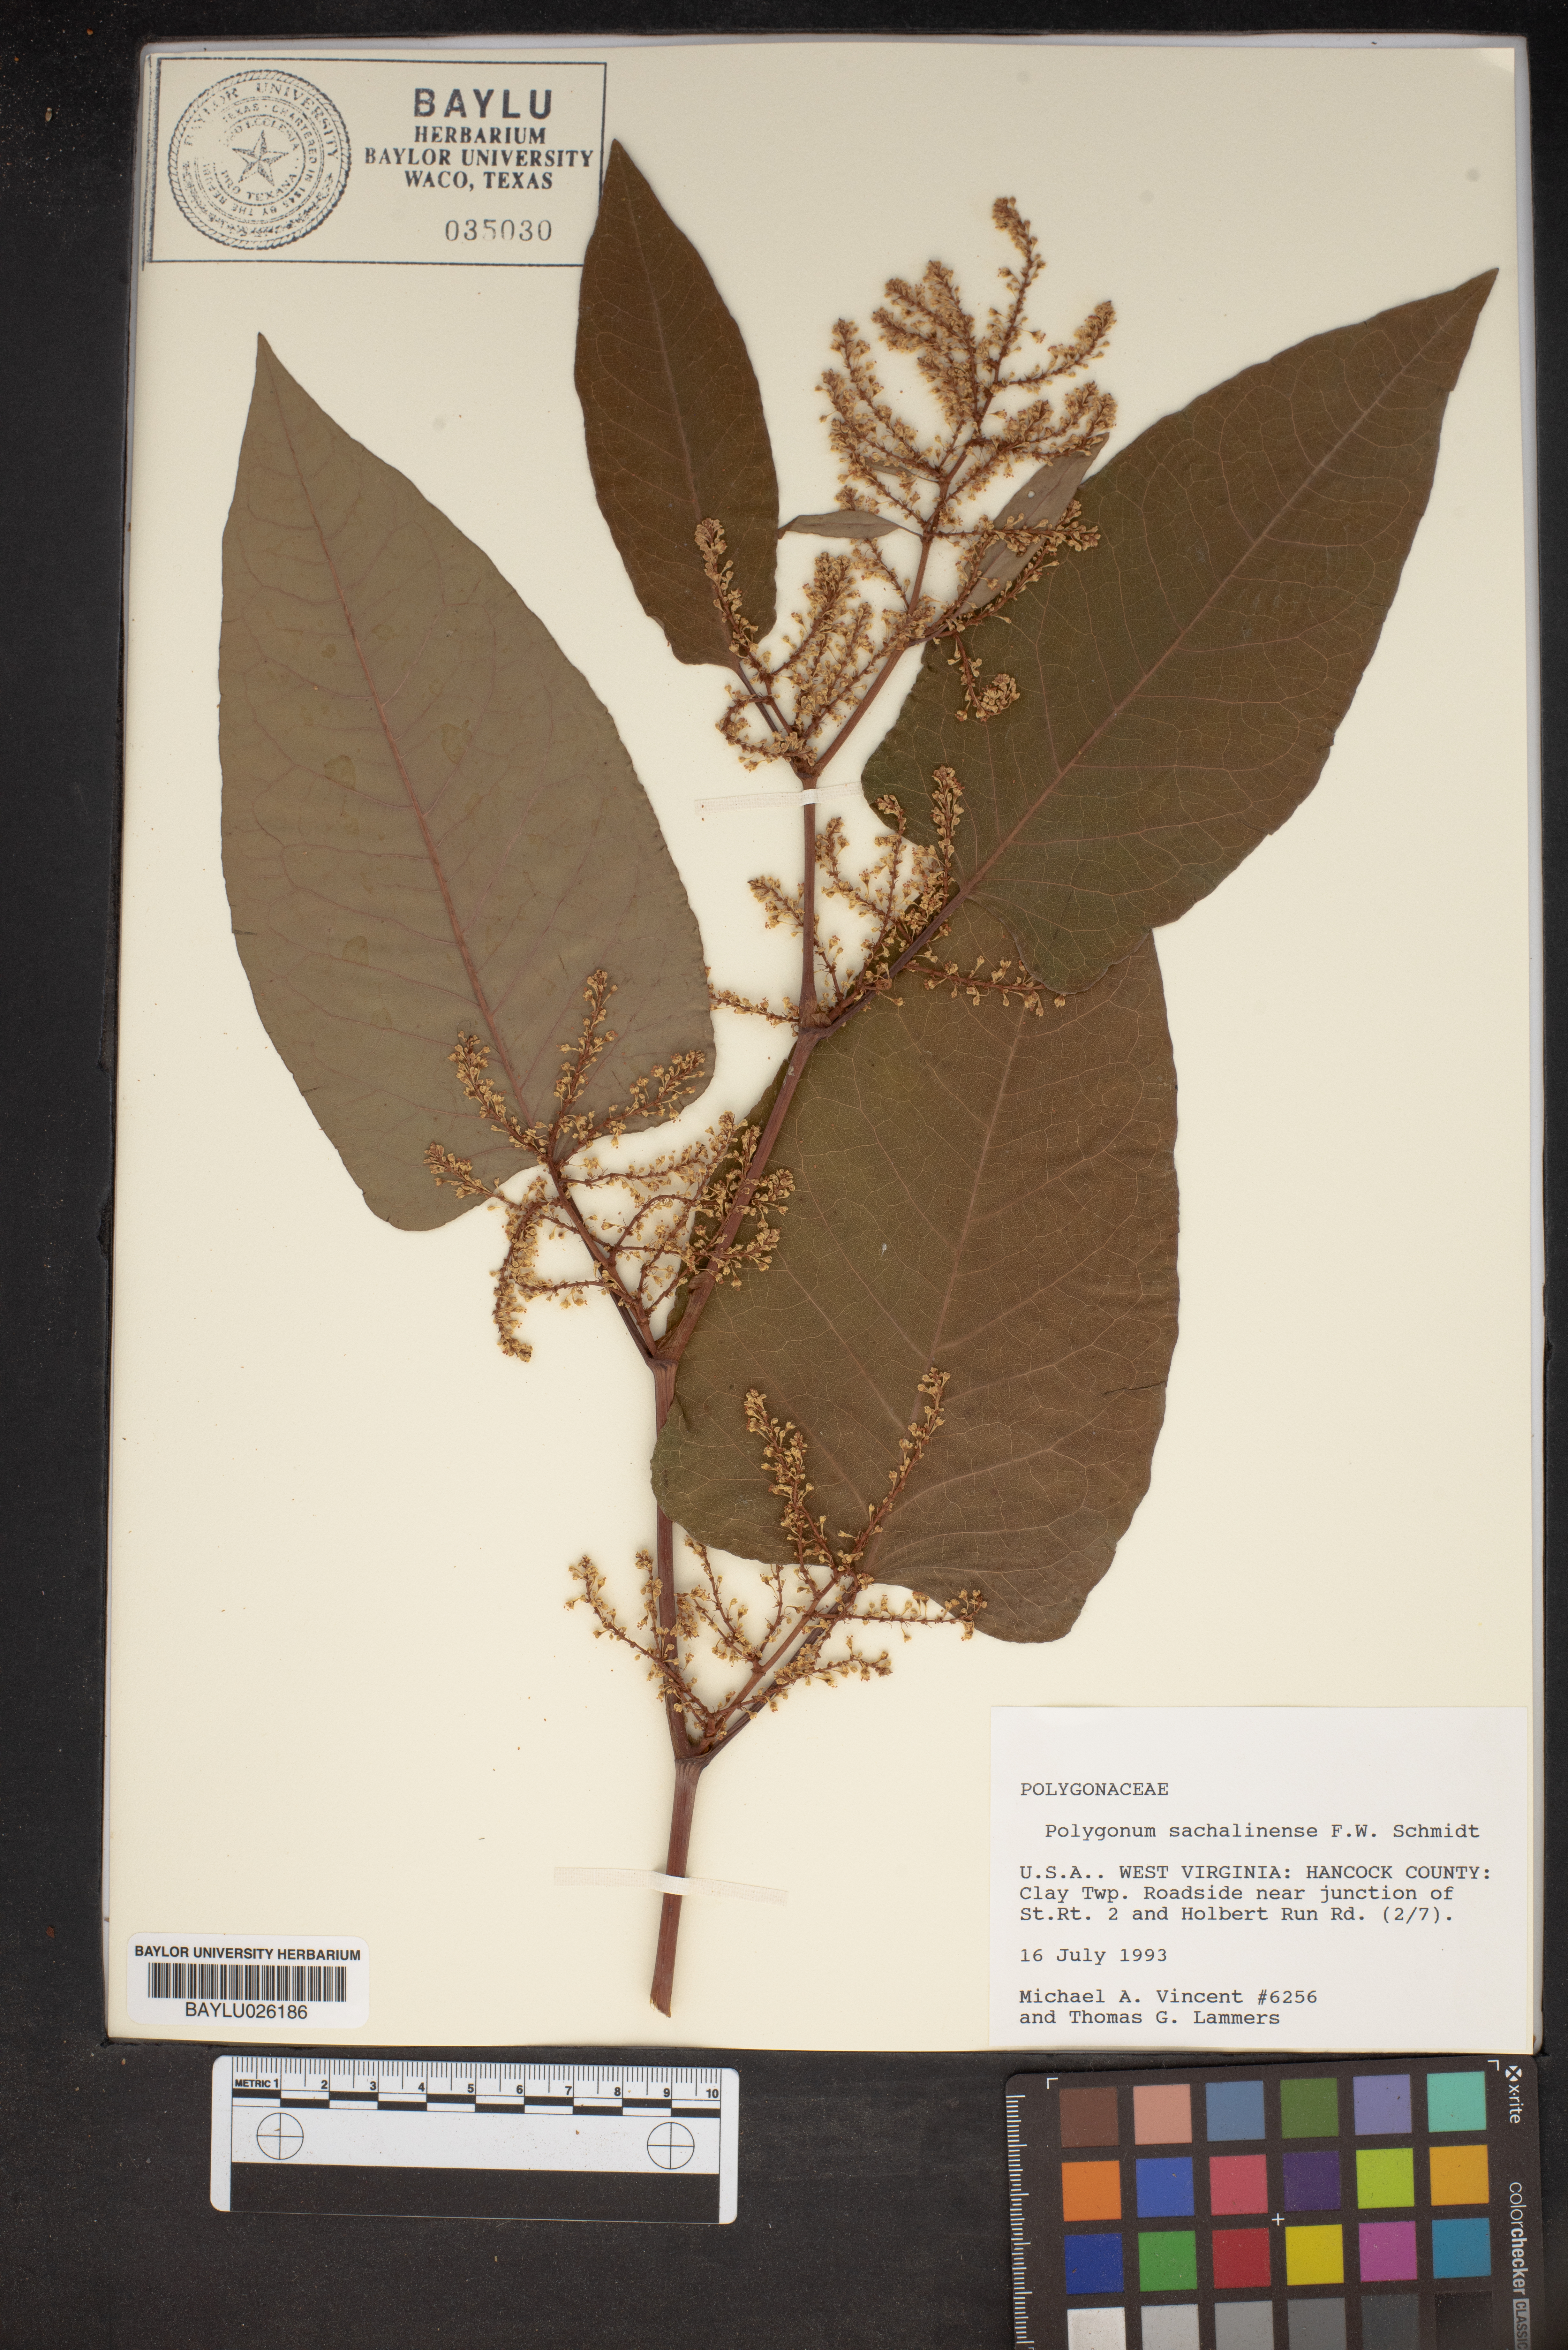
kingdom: Plantae
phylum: Tracheophyta
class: Magnoliopsida
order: Caryophyllales
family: Polygonaceae
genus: Reynoutria
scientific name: Reynoutria sachalinensis
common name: Giant knotweed
